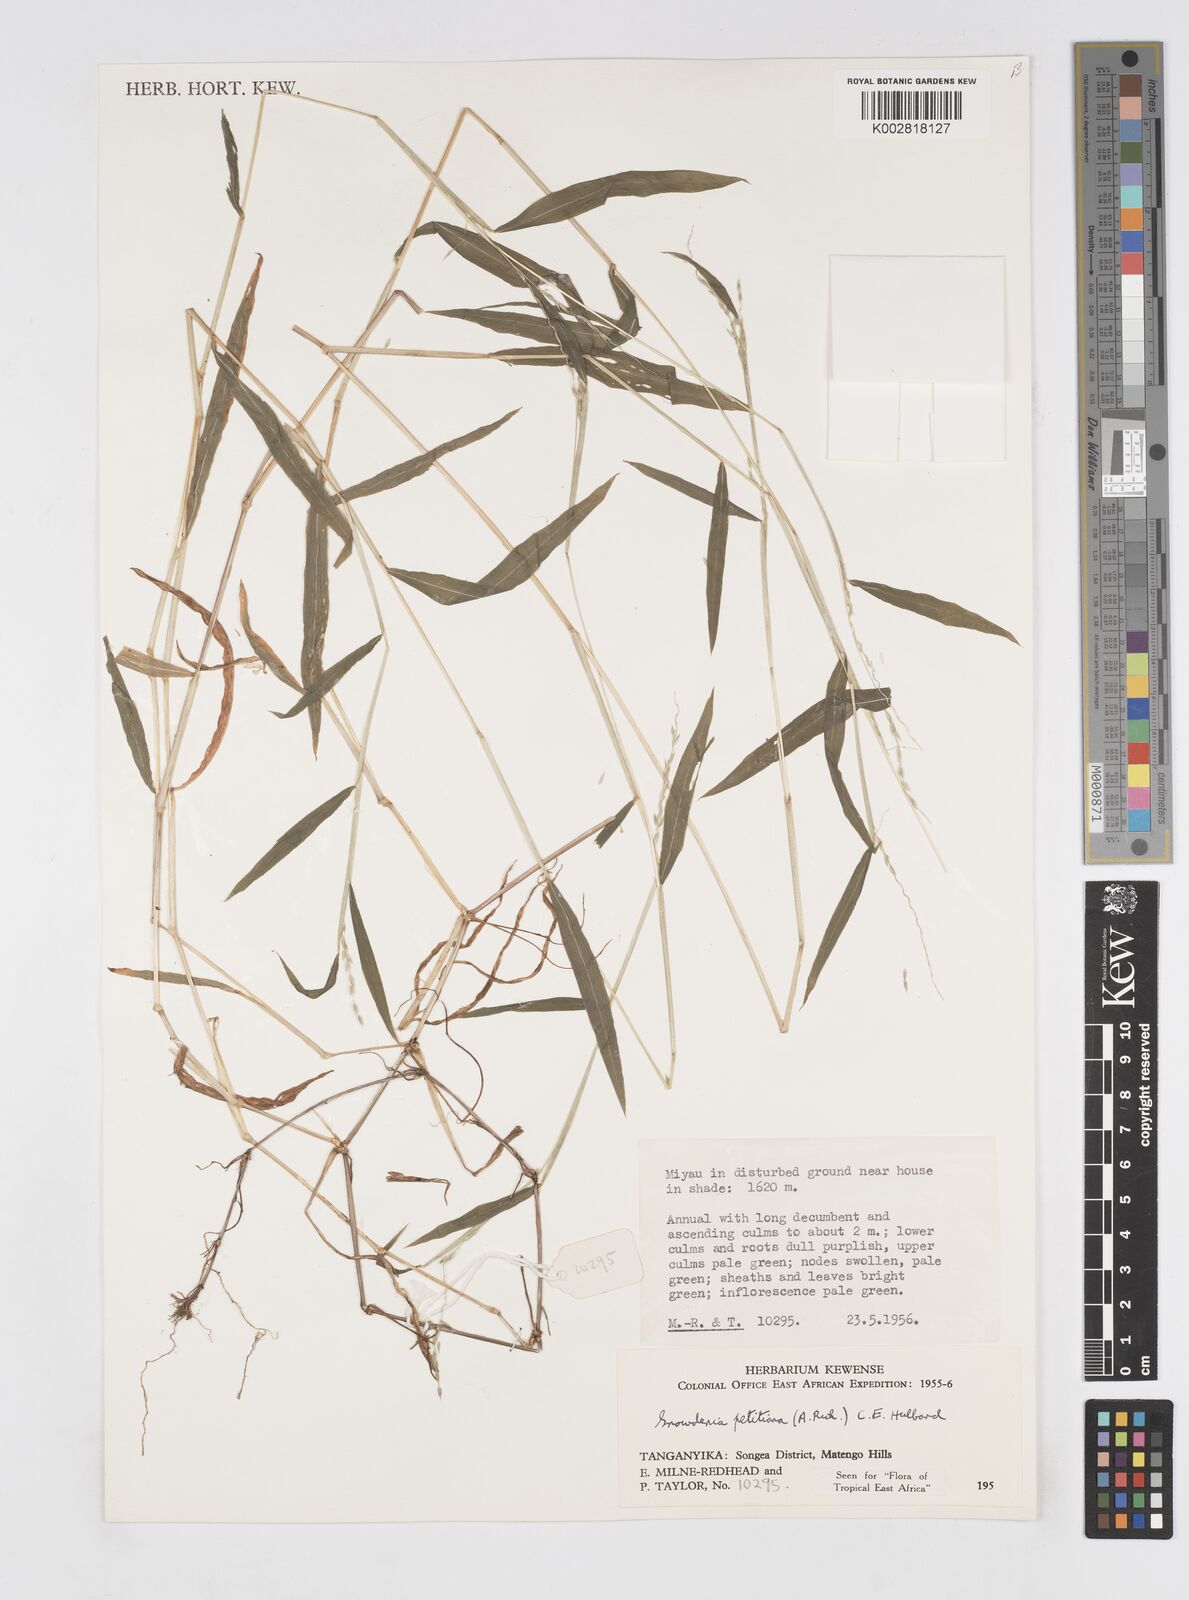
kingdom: Plantae
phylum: Tracheophyta
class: Liliopsida
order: Poales
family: Poaceae
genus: Snowdenia
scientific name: Snowdenia petitiana
